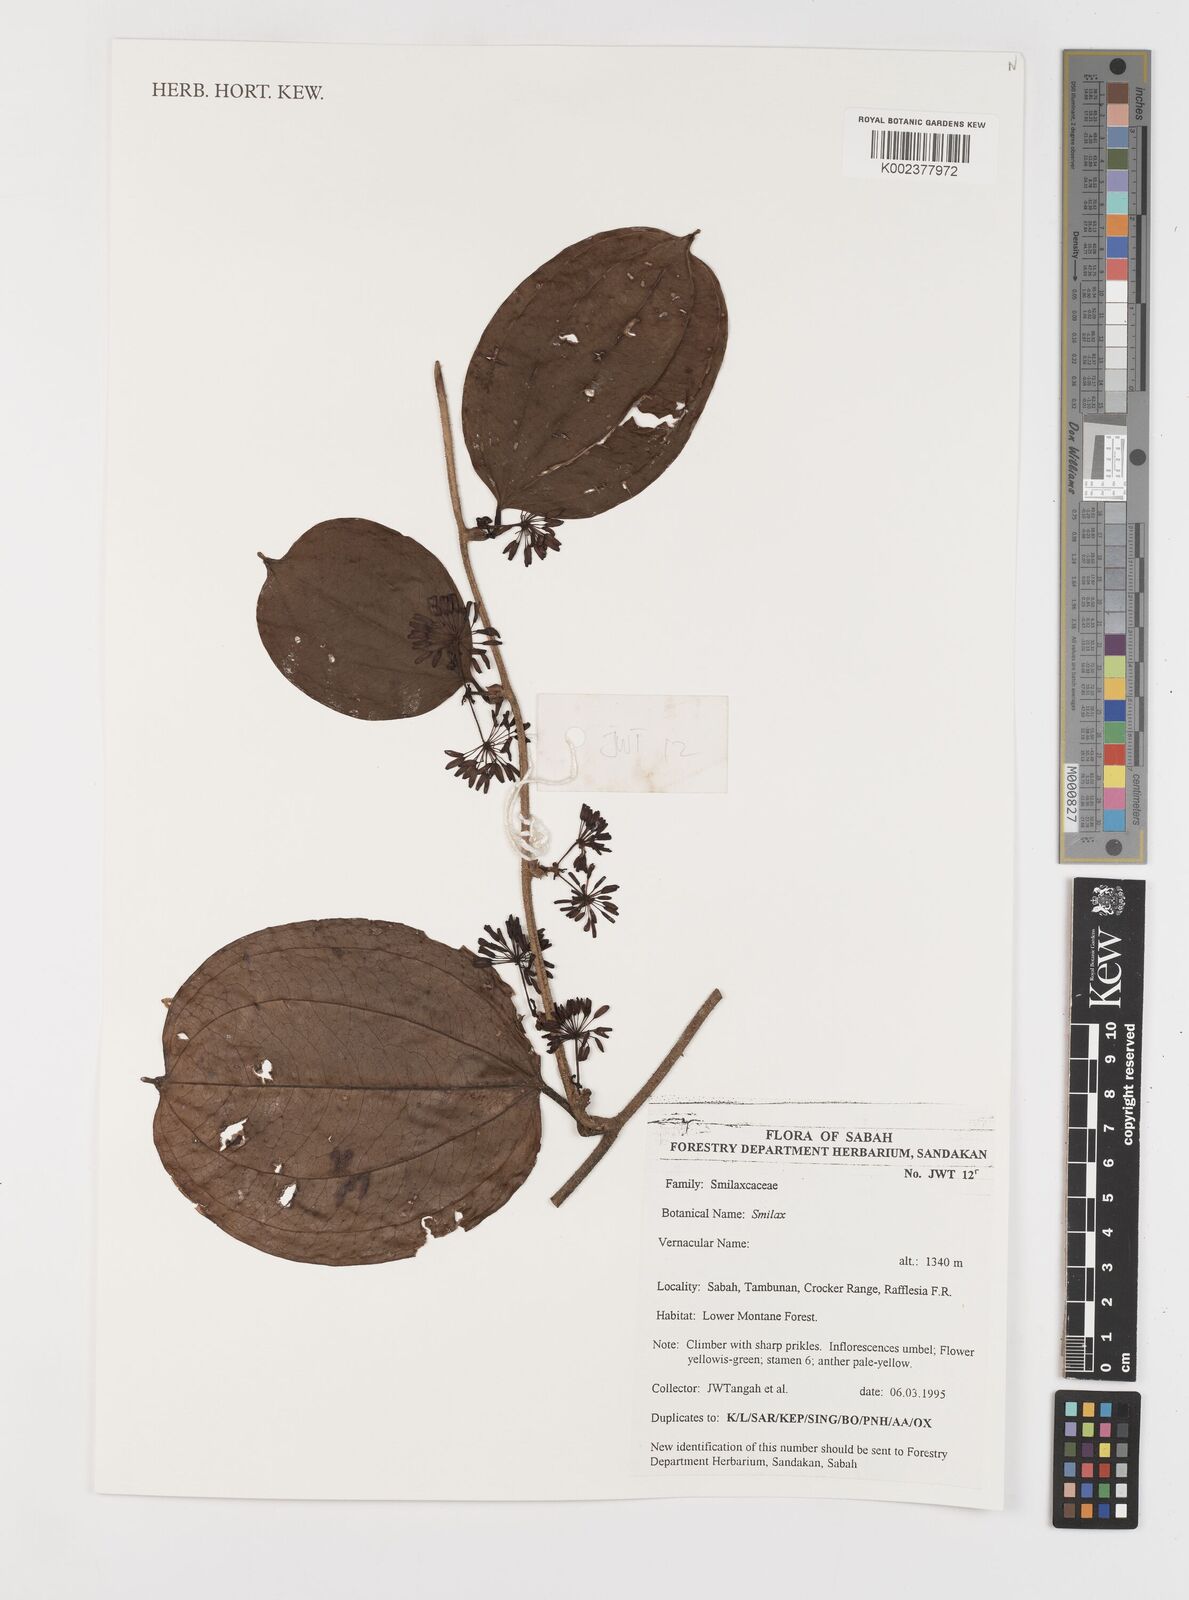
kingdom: Plantae
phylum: Tracheophyta
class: Liliopsida
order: Liliales
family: Smilacaceae
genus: Smilax
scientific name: Smilax
